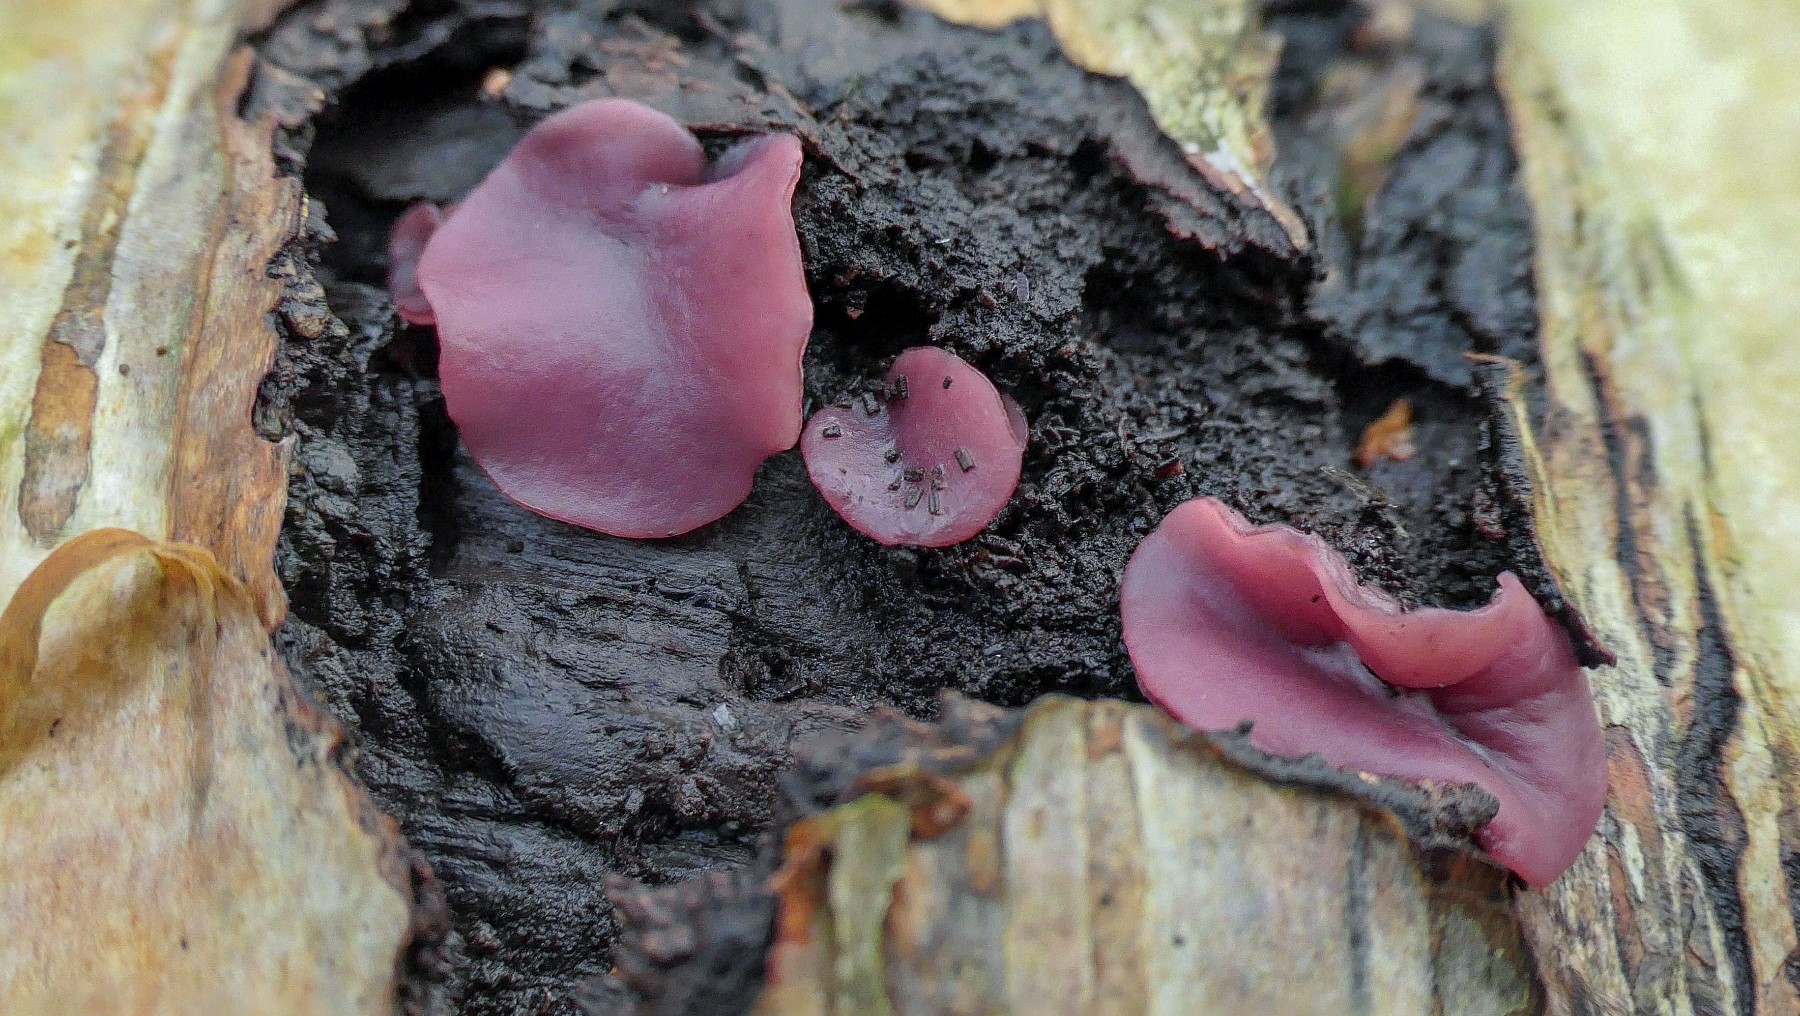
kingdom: Fungi
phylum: Ascomycota
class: Leotiomycetes
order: Helotiales
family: Gelatinodiscaceae
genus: Ascocoryne
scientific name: Ascocoryne cylichnium
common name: stor sejskive
